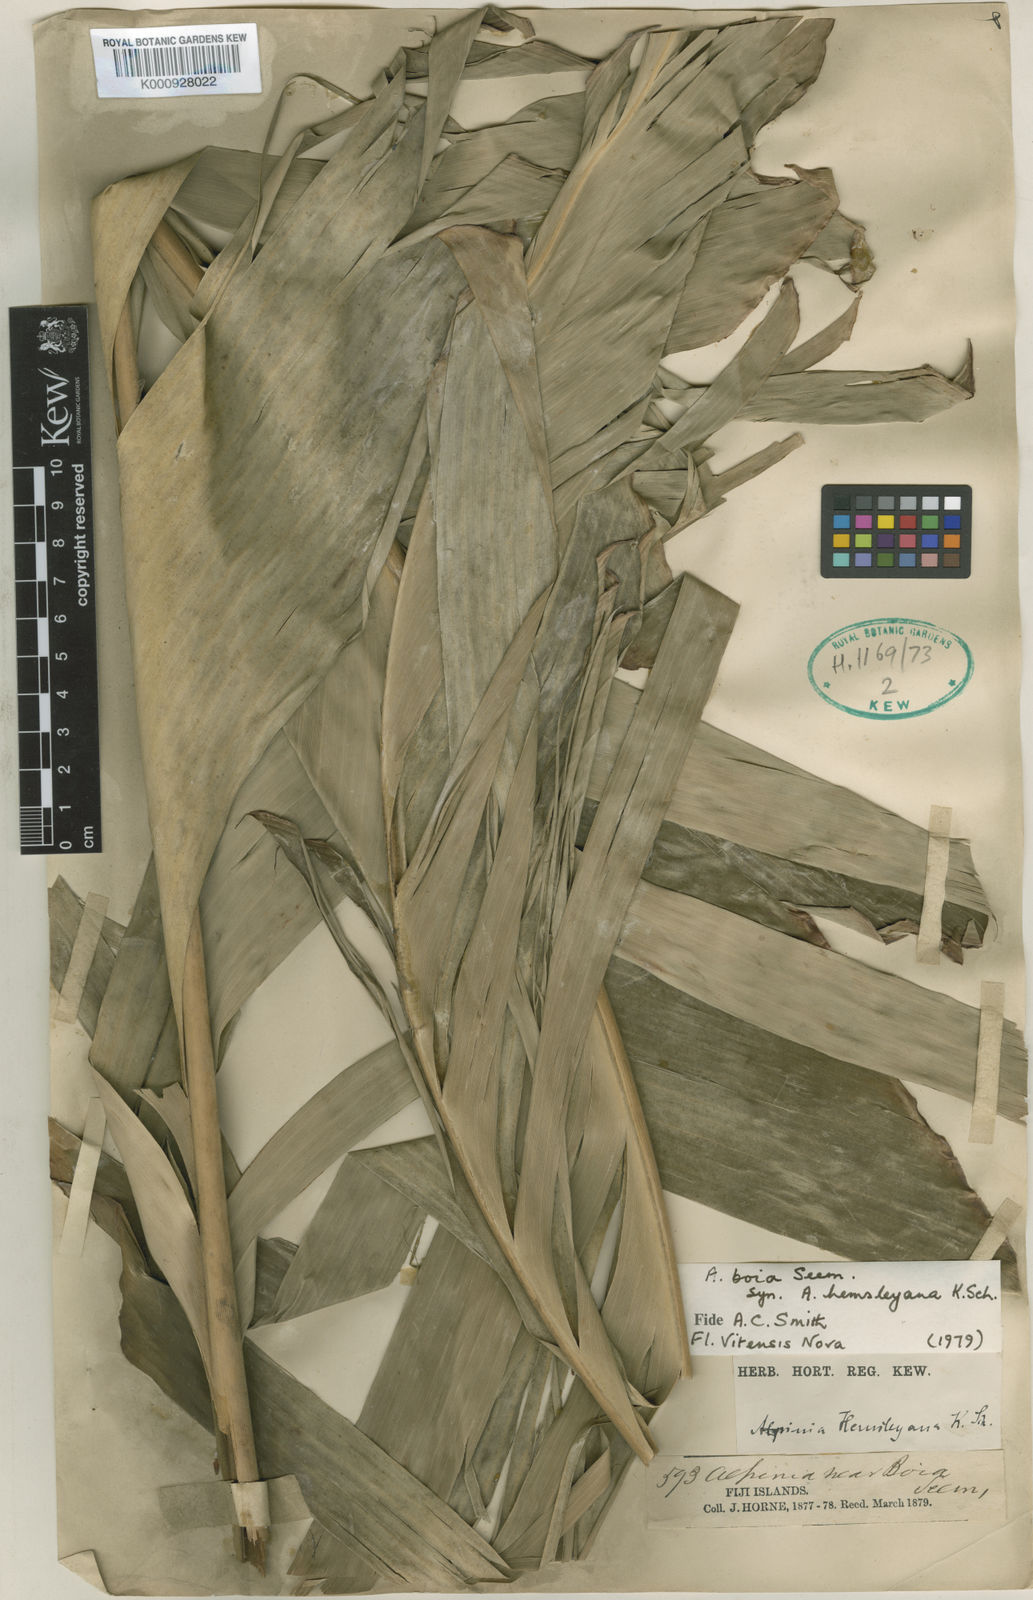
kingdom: Plantae
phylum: Tracheophyta
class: Liliopsida
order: Zingiberales
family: Zingiberaceae
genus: Alpinia
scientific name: Alpinia boia
